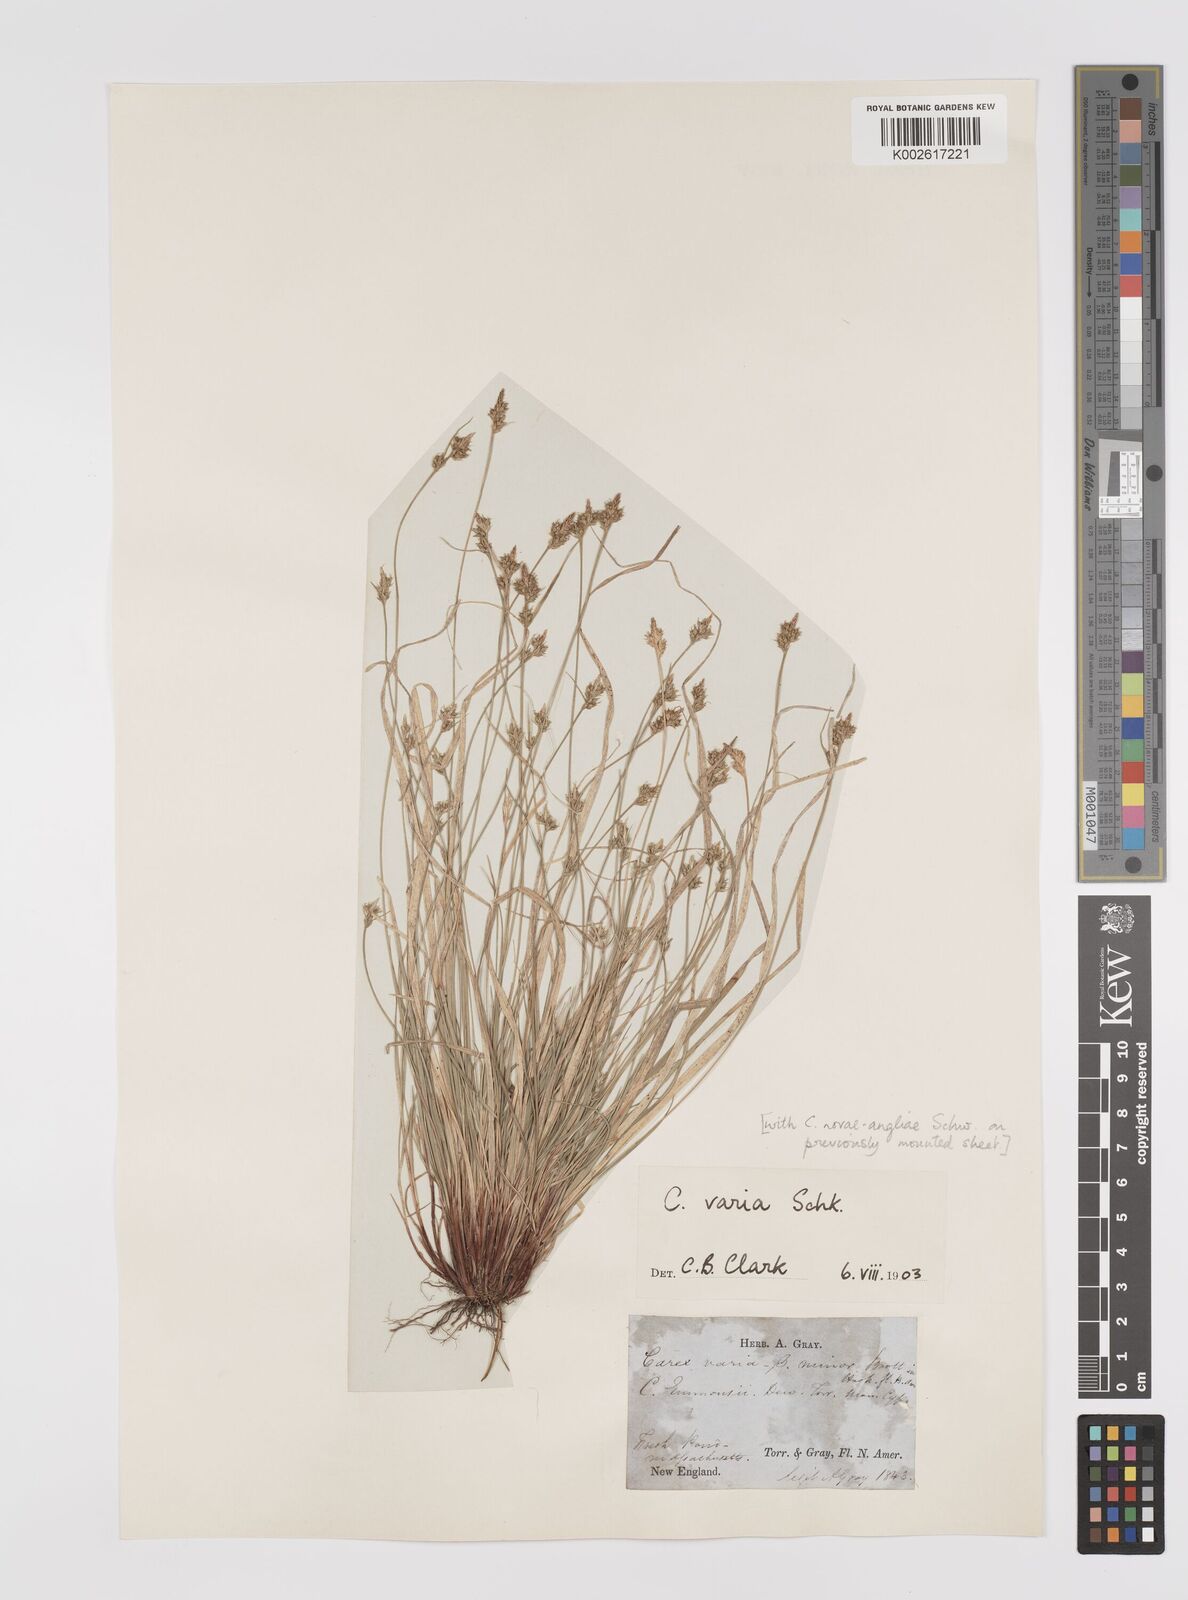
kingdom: Plantae
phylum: Tracheophyta
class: Liliopsida
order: Poales
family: Cyperaceae
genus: Carex
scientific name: Carex albicans
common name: Bellow-beaked sedge
